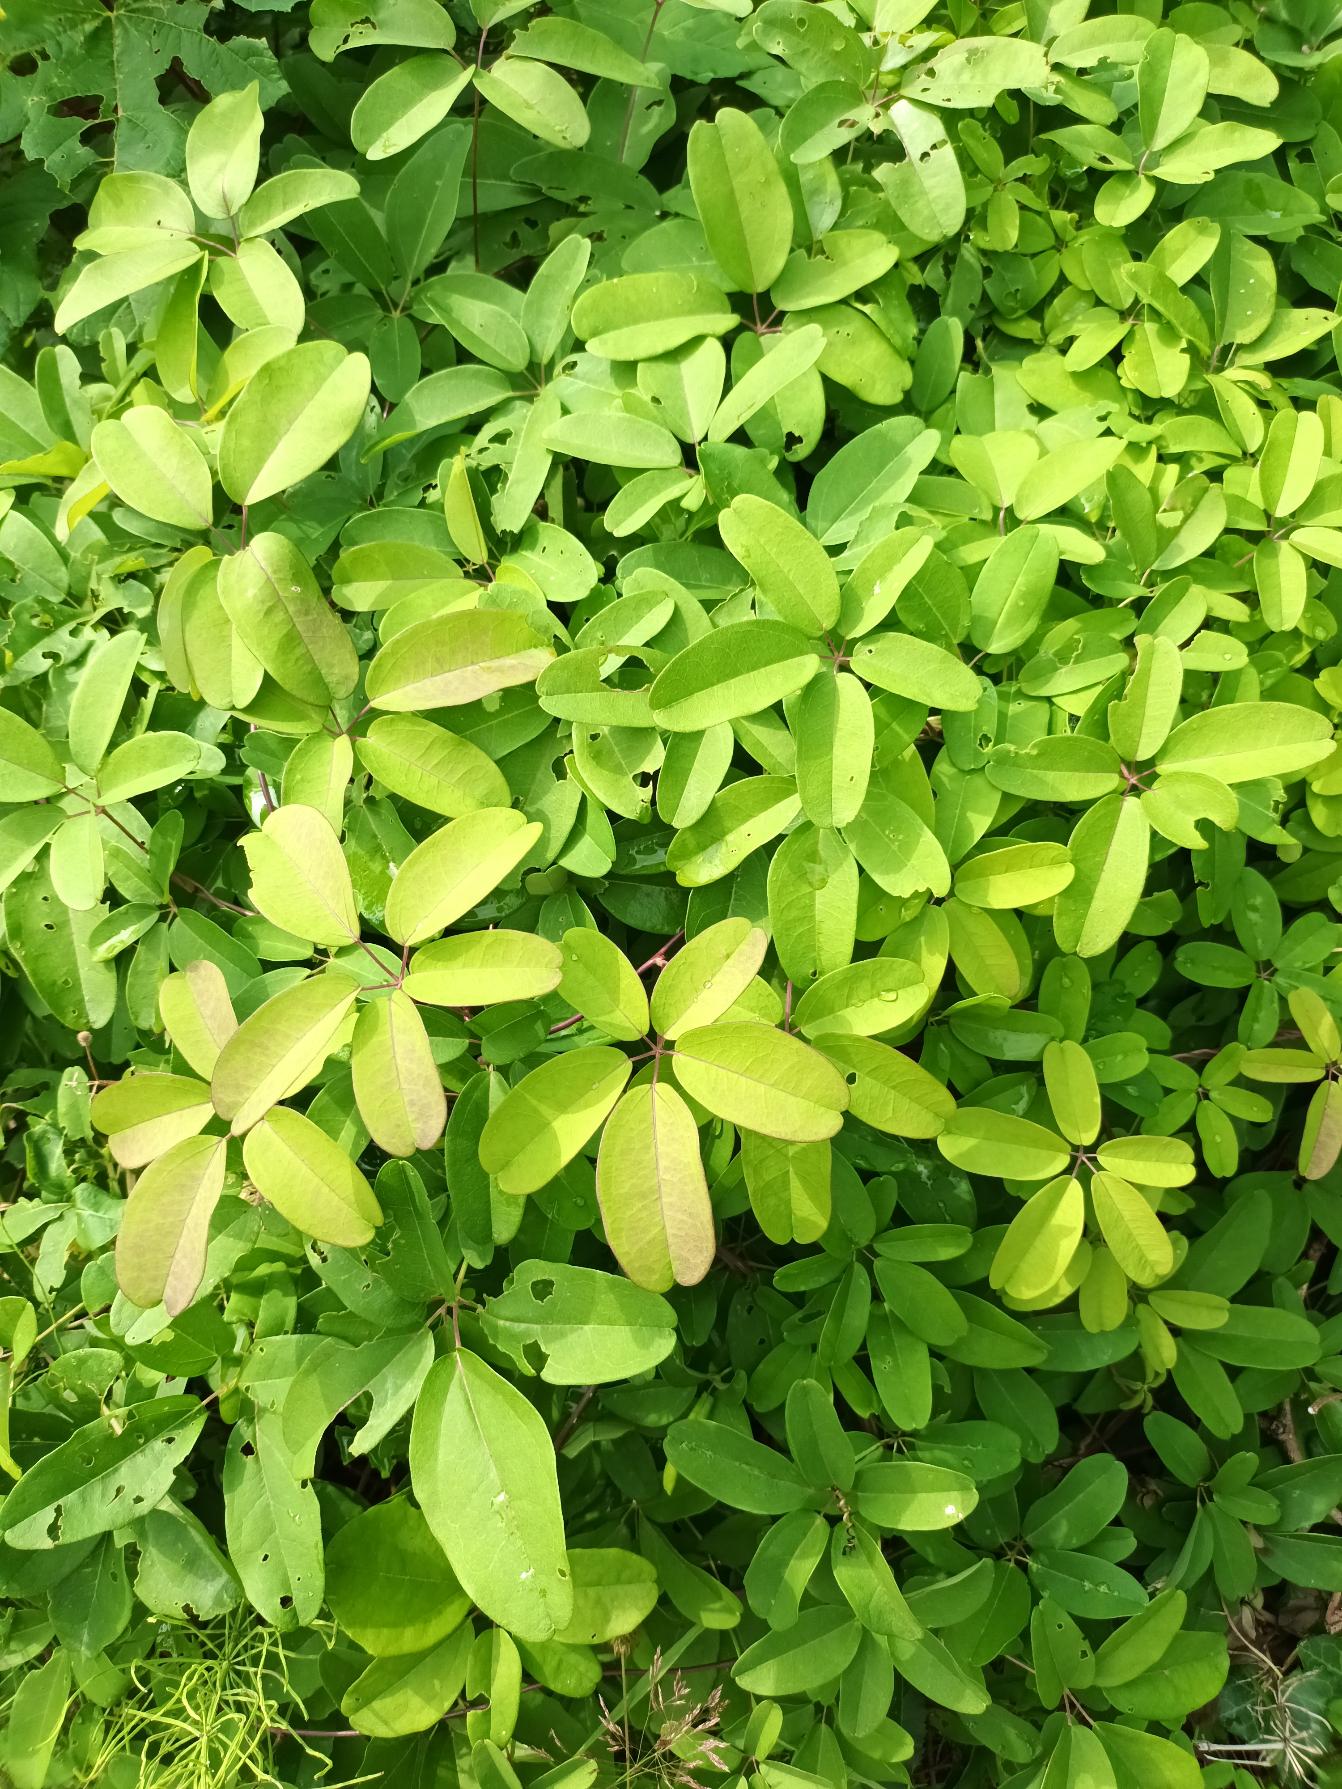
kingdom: Plantae
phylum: Tracheophyta
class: Magnoliopsida
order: Ranunculales
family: Lardizabalaceae
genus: Akebia
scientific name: Akebia quinata
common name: Femfingret akebia
